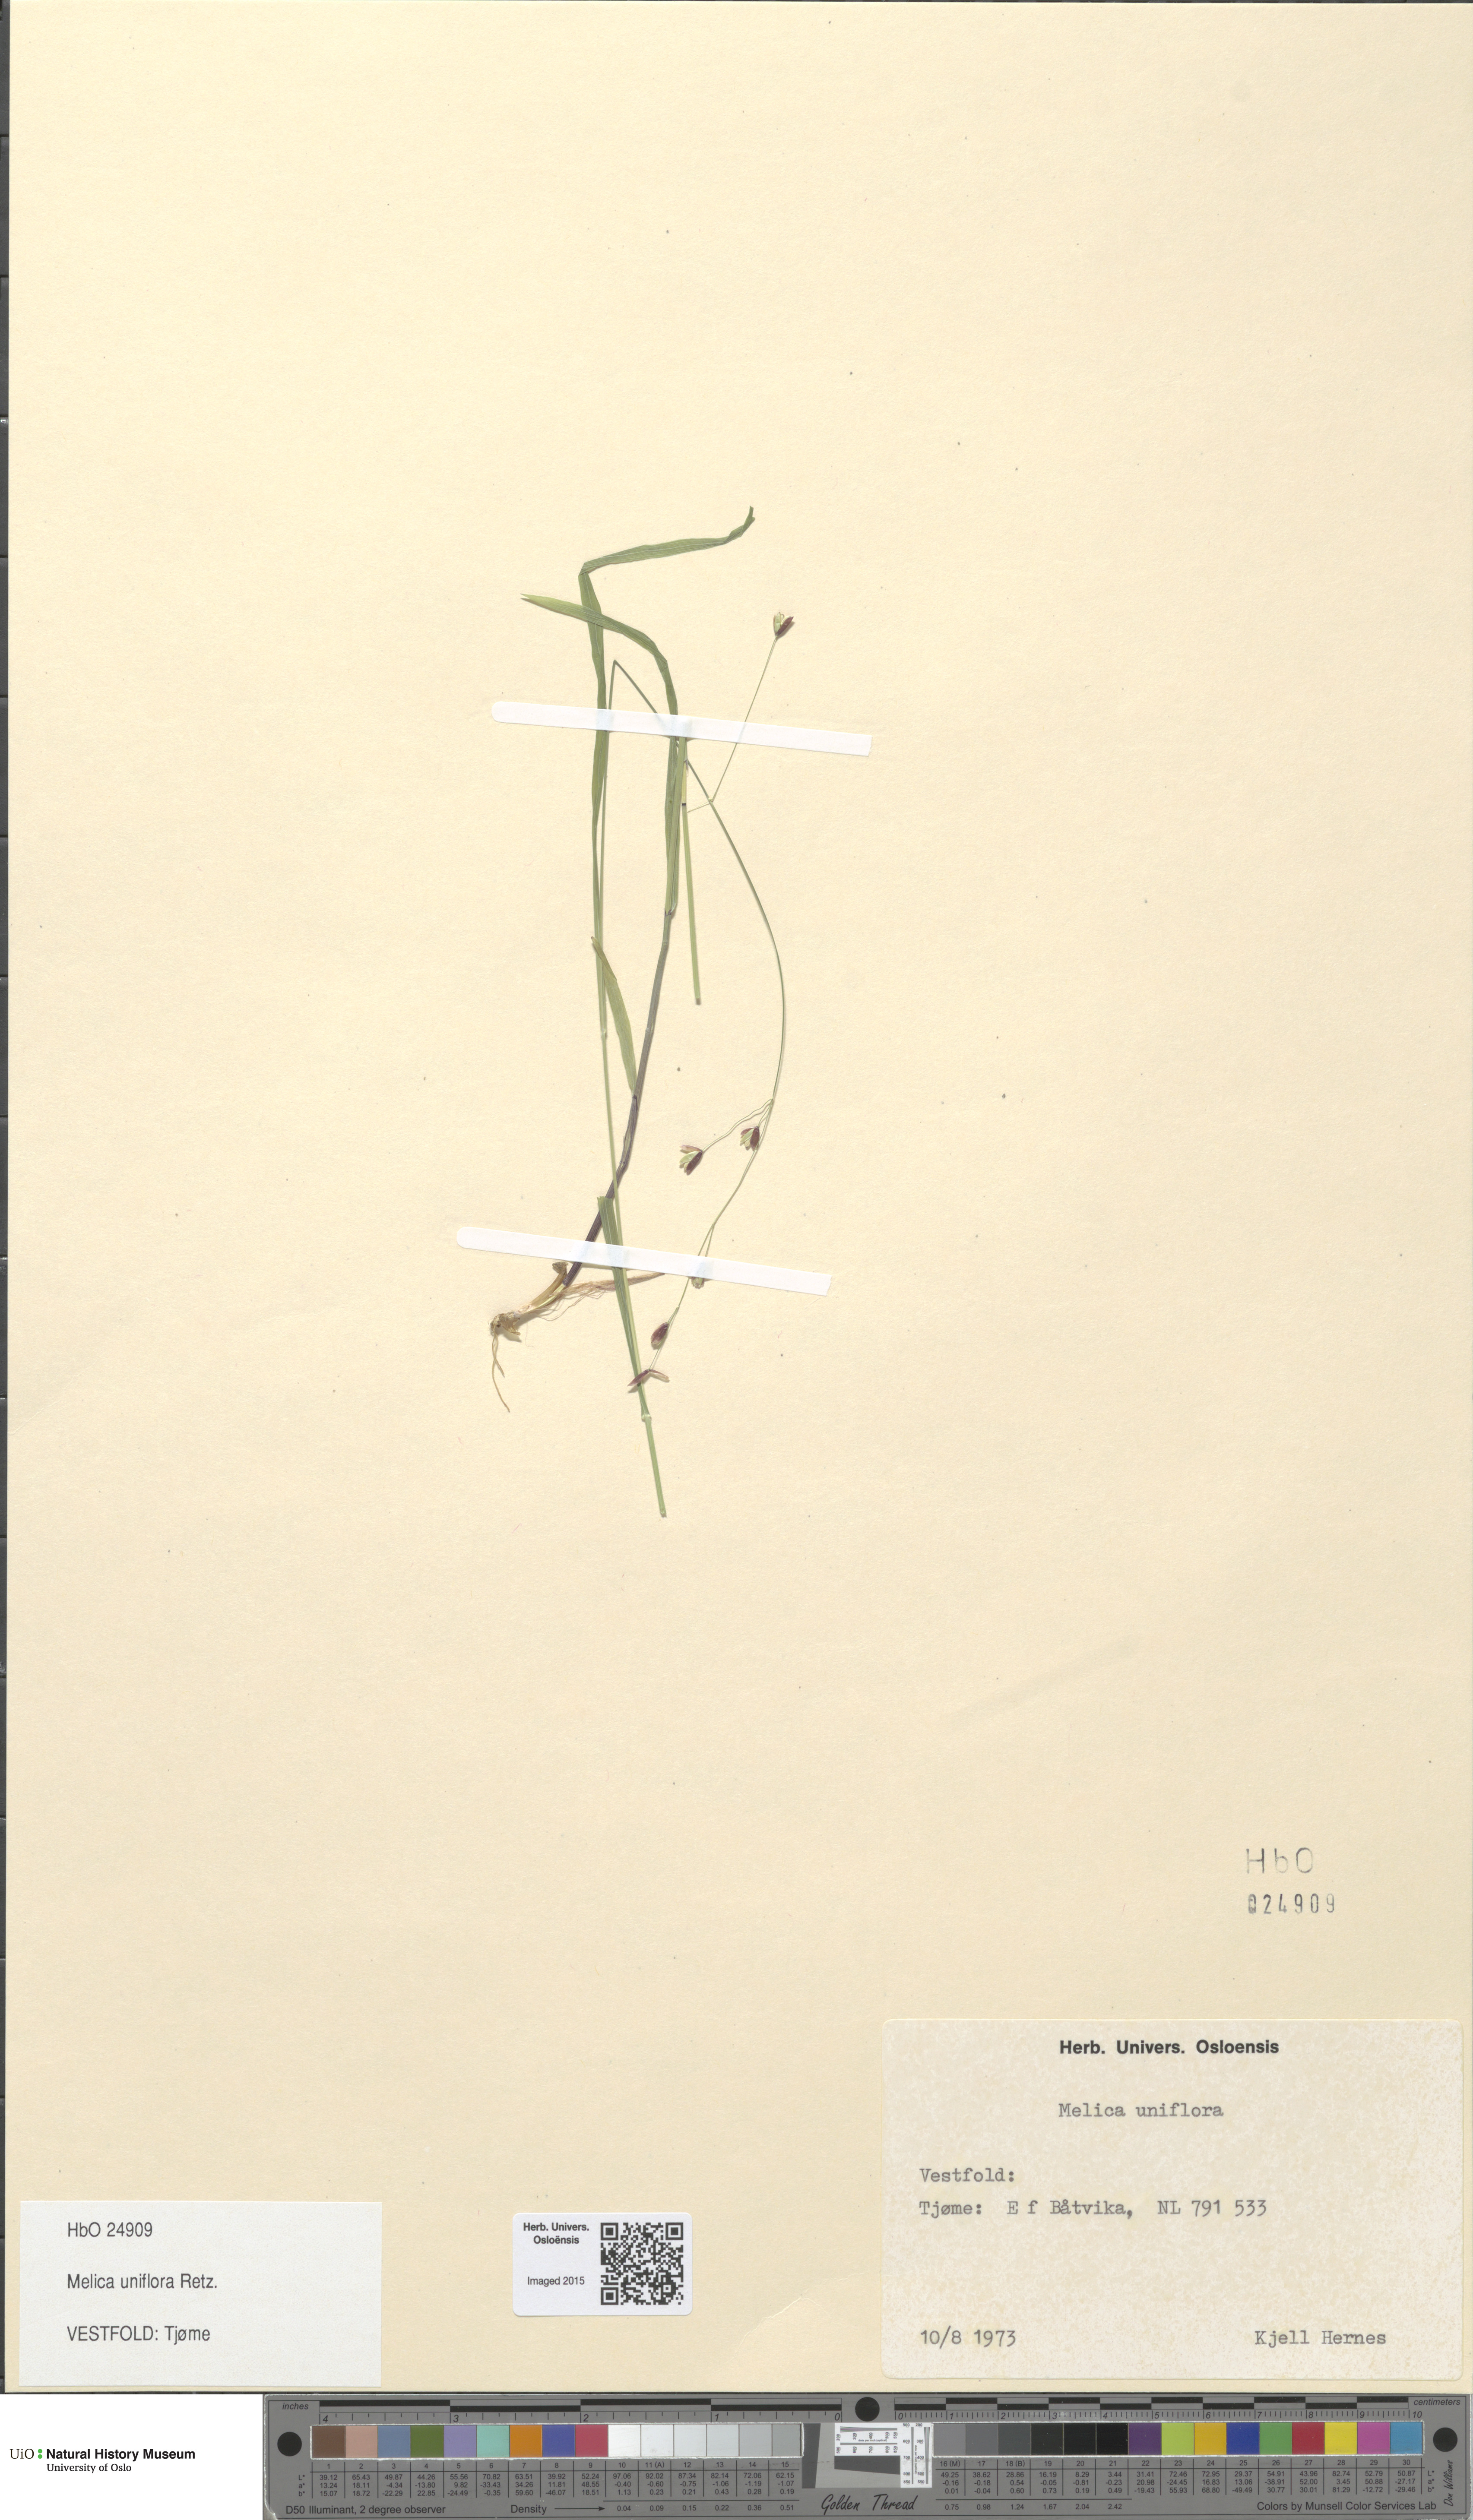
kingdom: Plantae
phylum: Tracheophyta
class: Liliopsida
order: Poales
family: Poaceae
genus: Melica
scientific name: Melica uniflora
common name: Wood melick
